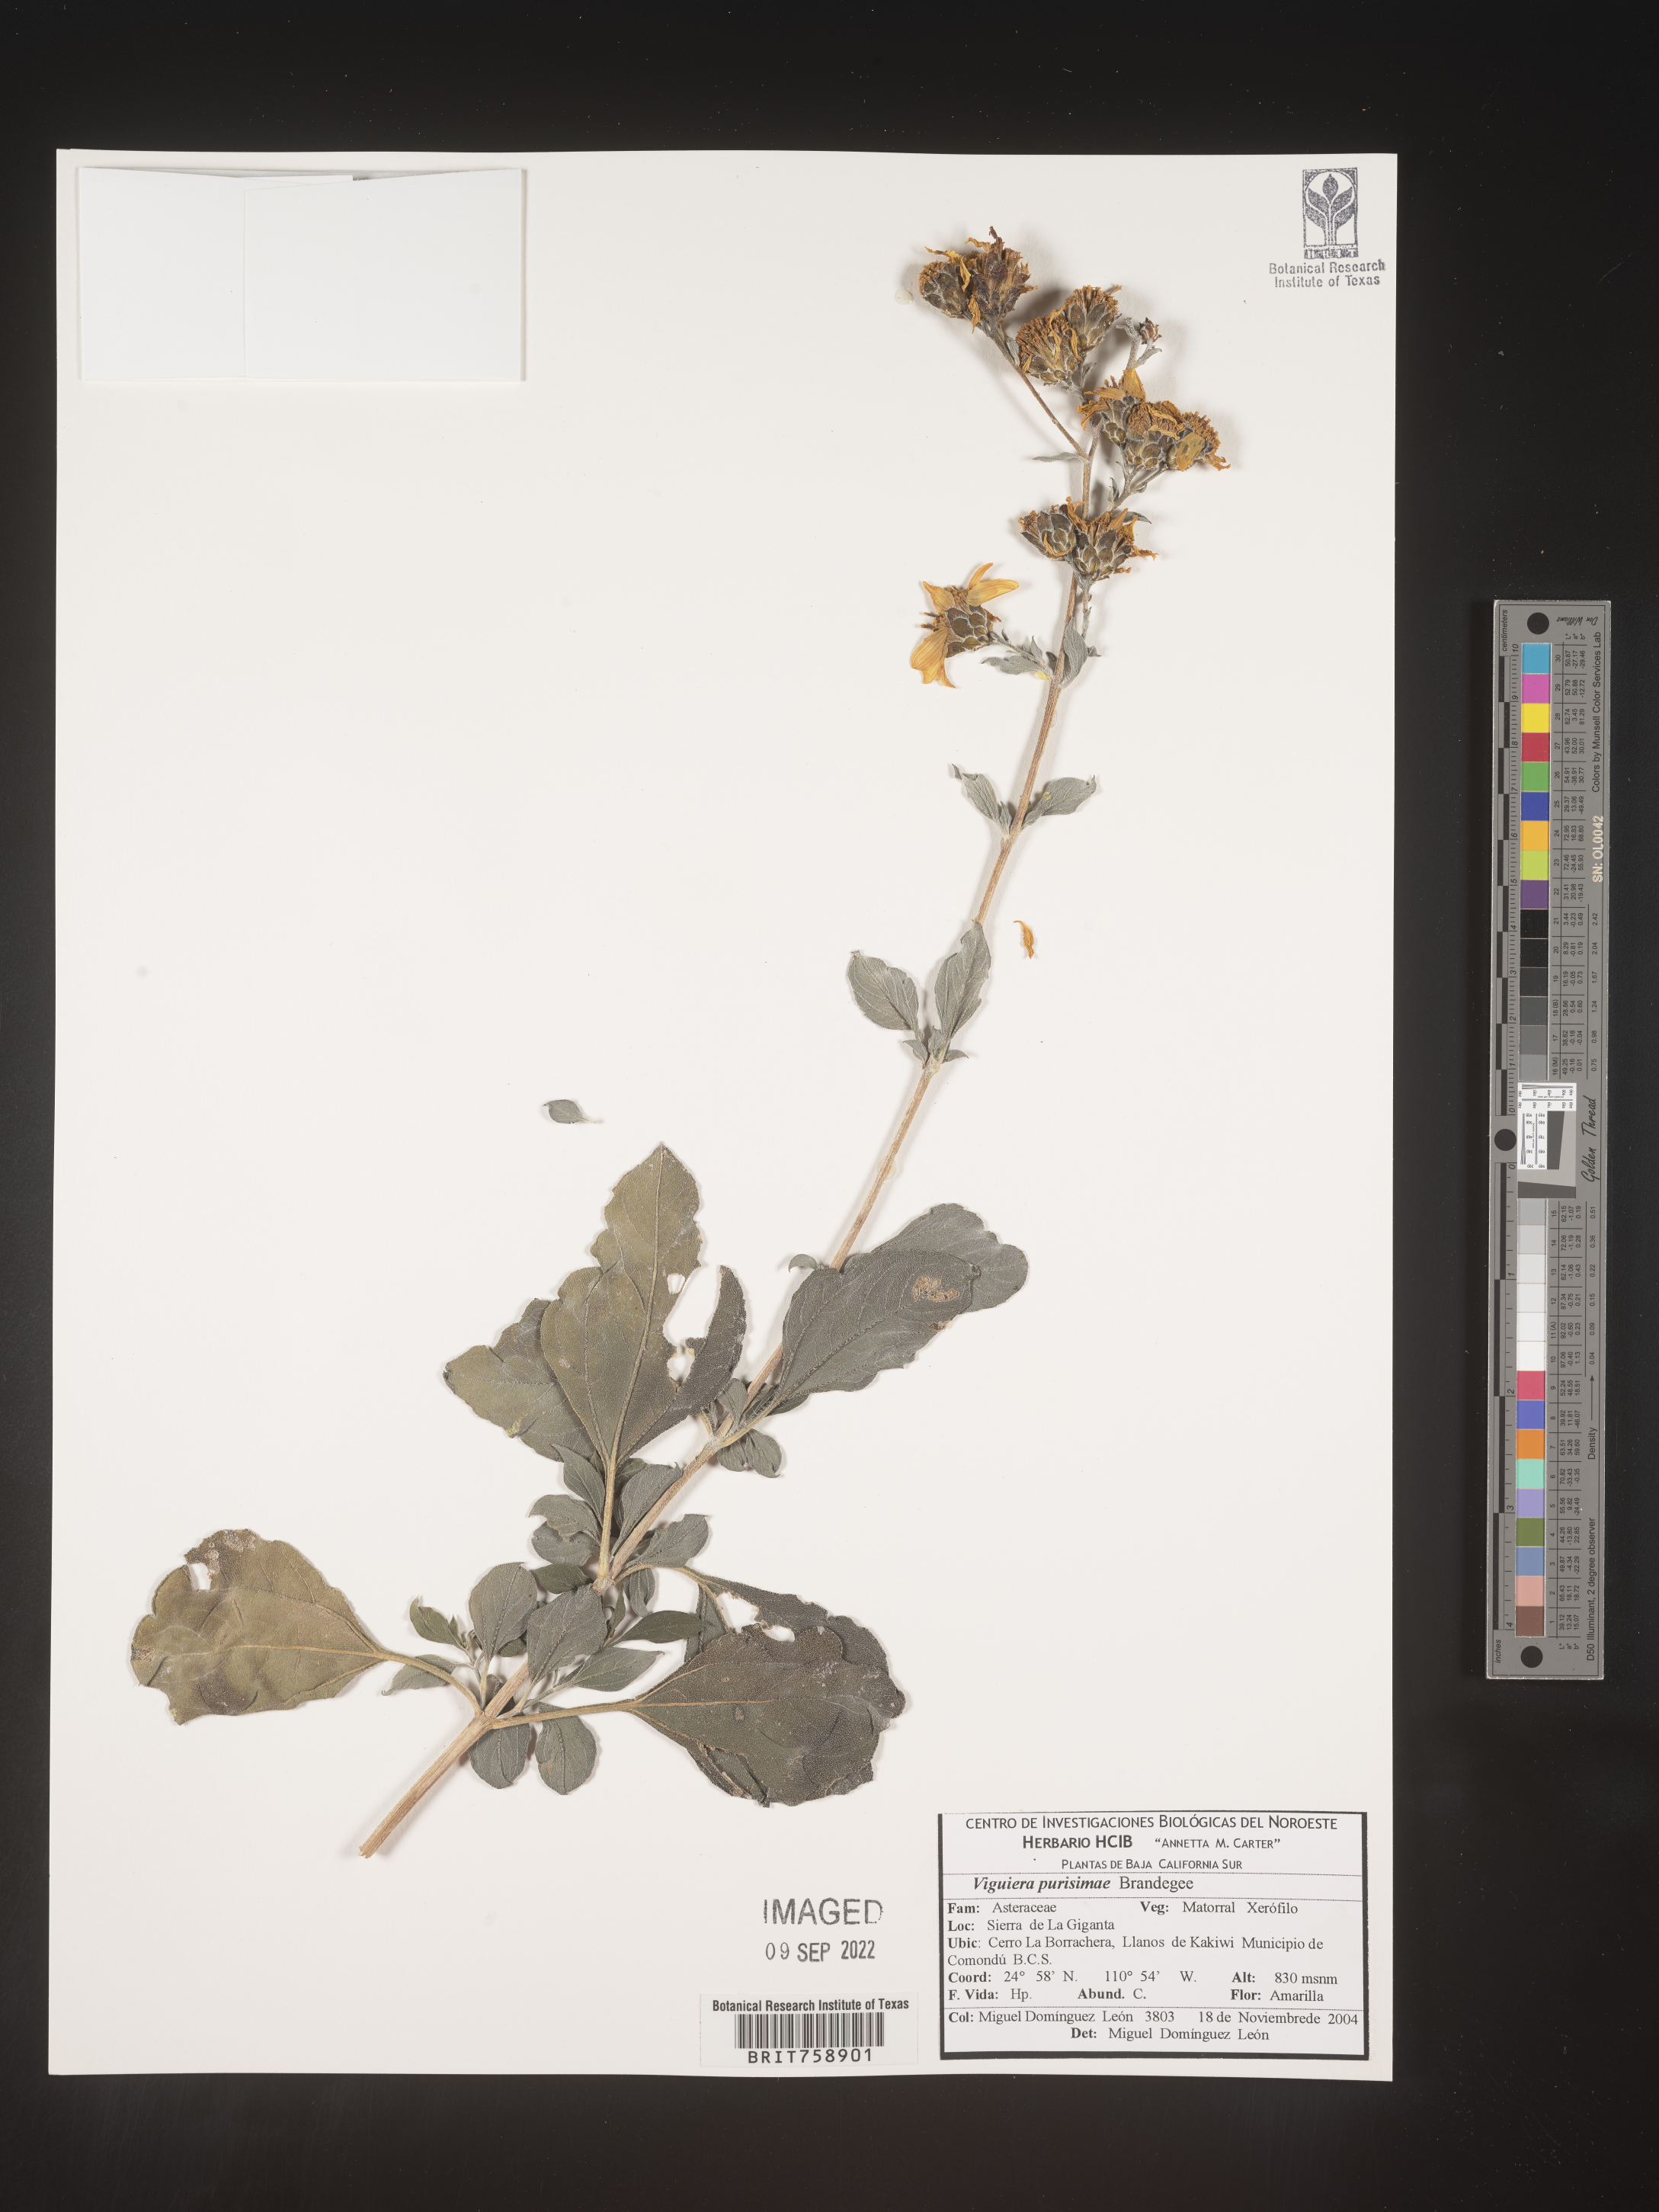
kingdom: Plantae
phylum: Tracheophyta
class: Magnoliopsida
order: Asterales
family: Asteraceae
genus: Viguiera
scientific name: Viguiera
